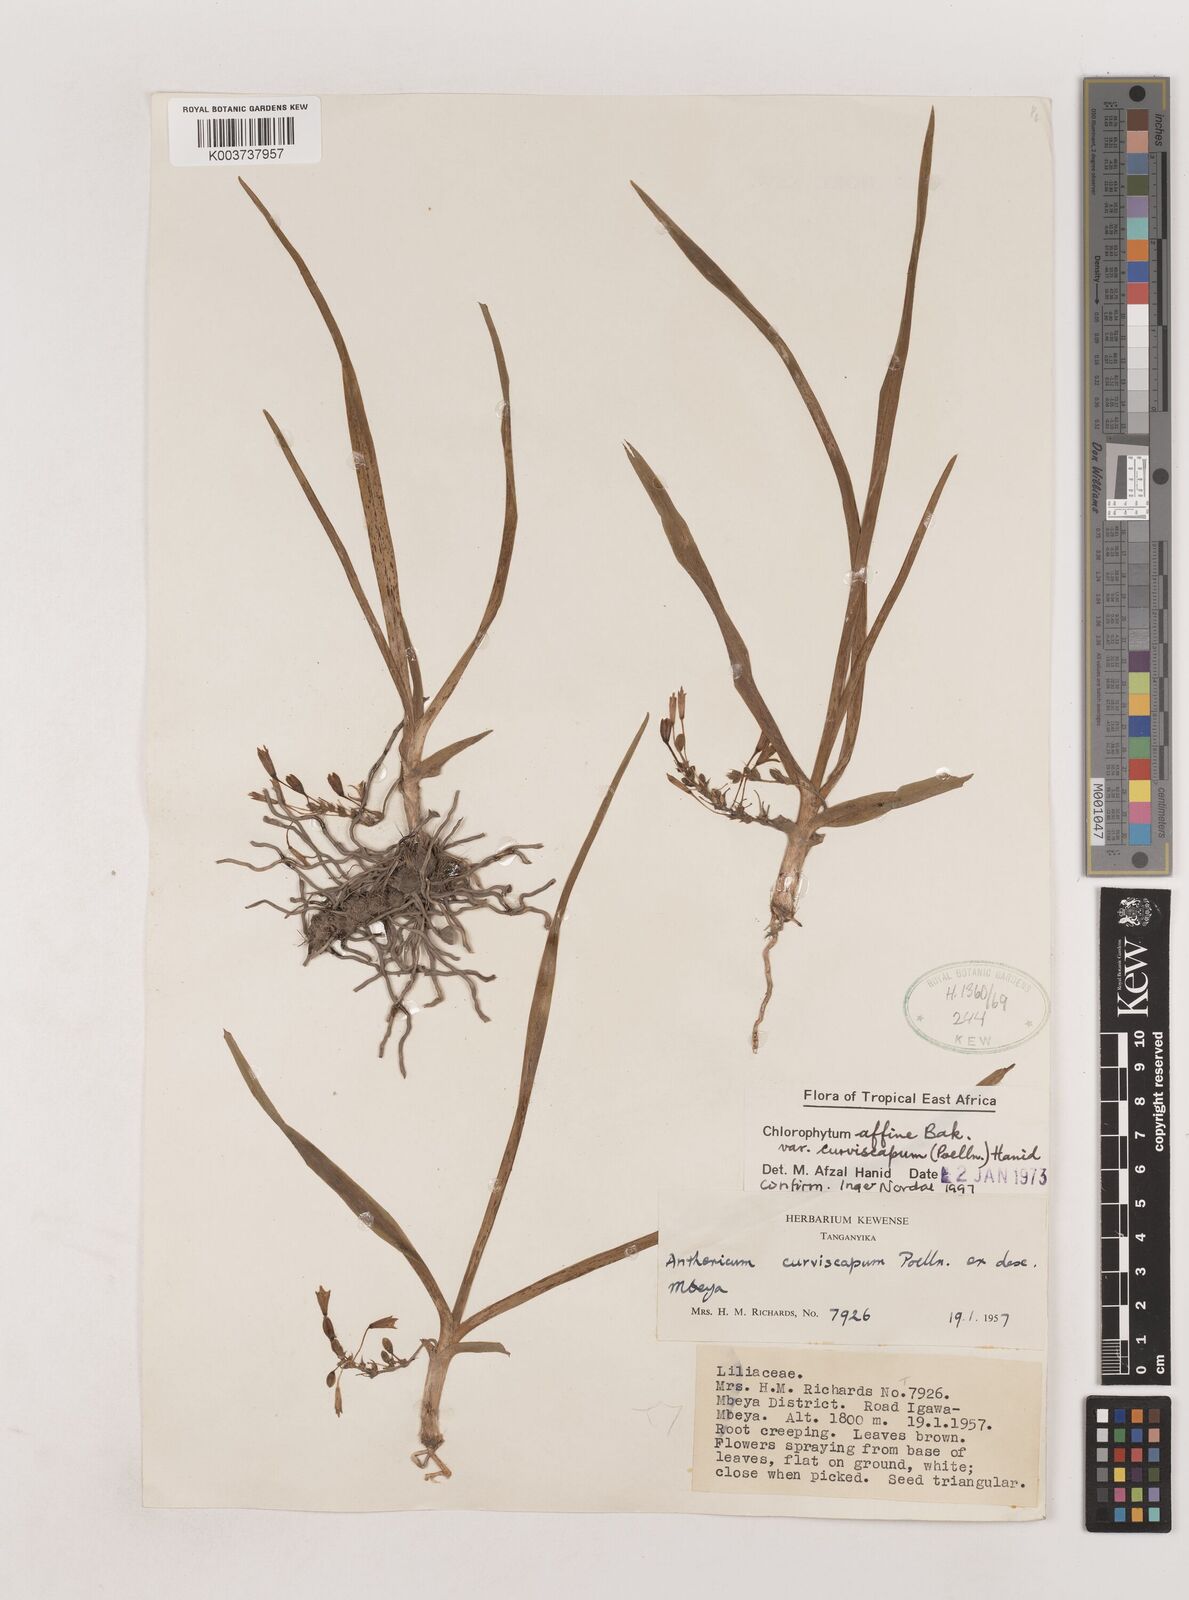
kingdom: Plantae
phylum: Tracheophyta
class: Liliopsida
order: Asparagales
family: Asparagaceae
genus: Chlorophytum
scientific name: Chlorophytum tordense
